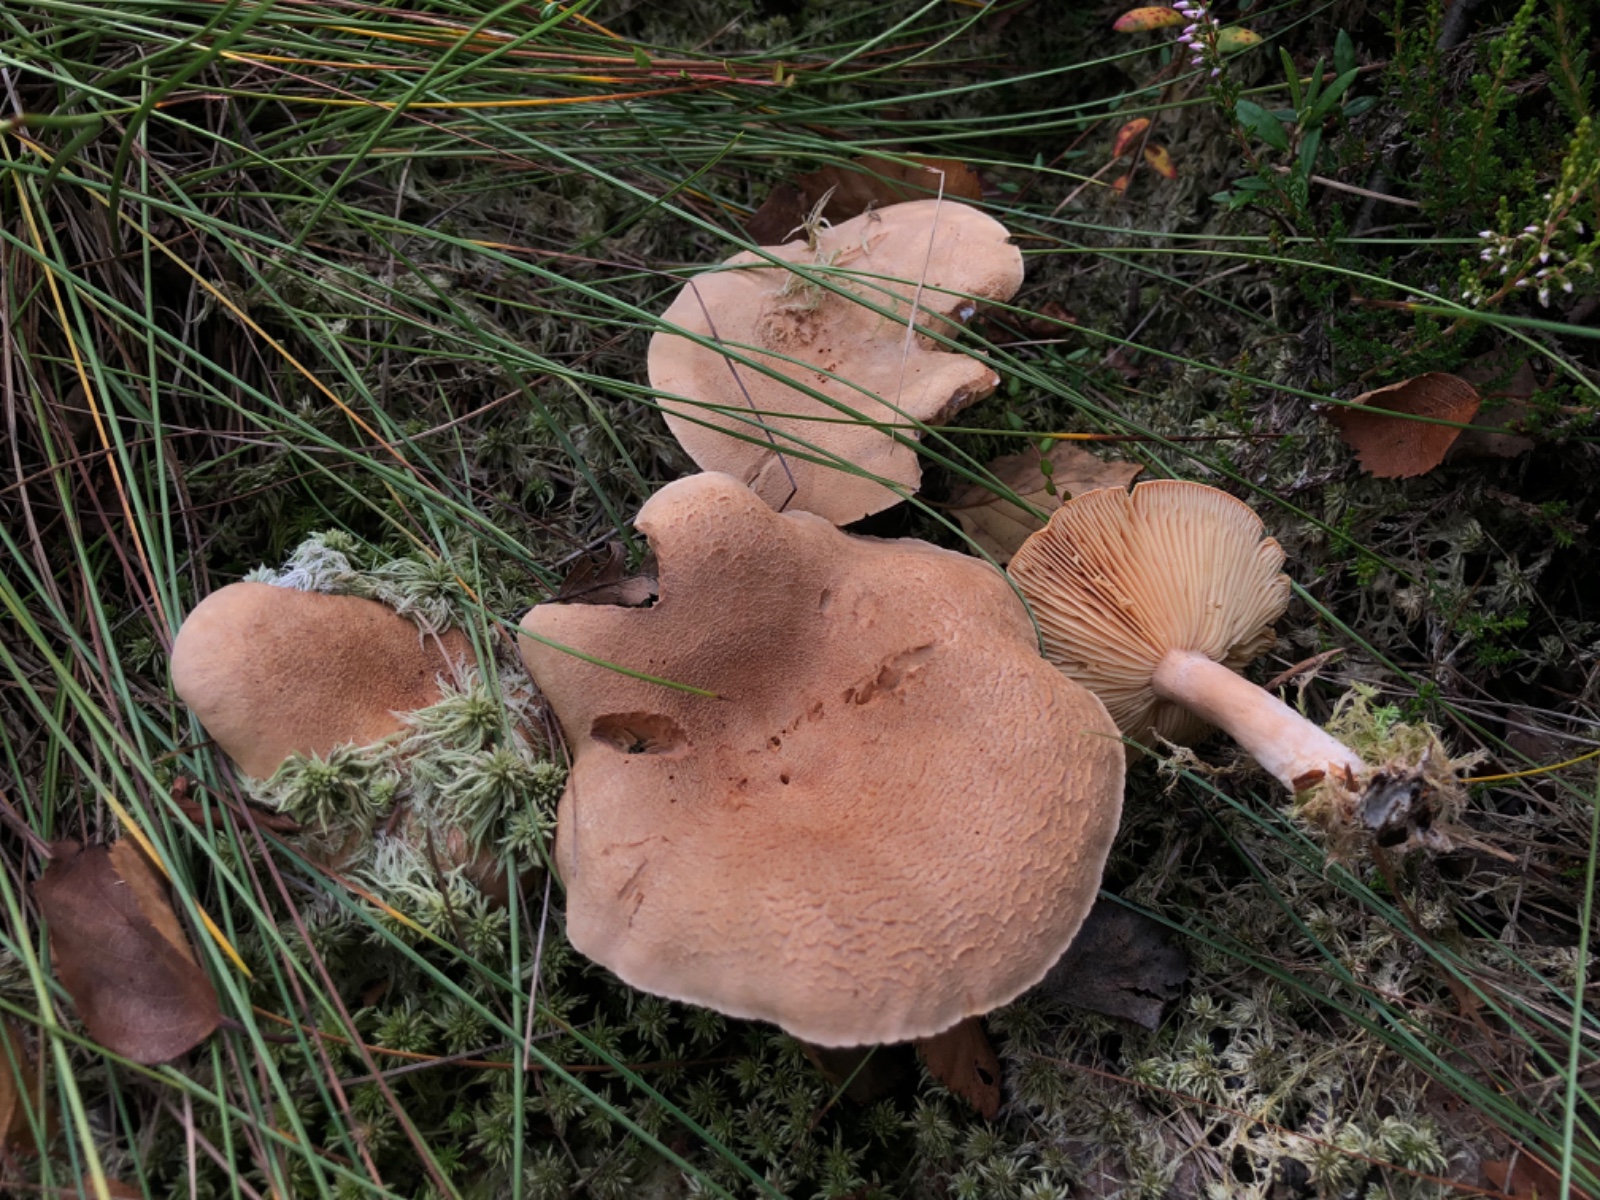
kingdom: Fungi
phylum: Basidiomycota
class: Agaricomycetes
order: Russulales
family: Russulaceae
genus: Lactarius
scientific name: Lactarius helvus
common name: mose-mælkehat
